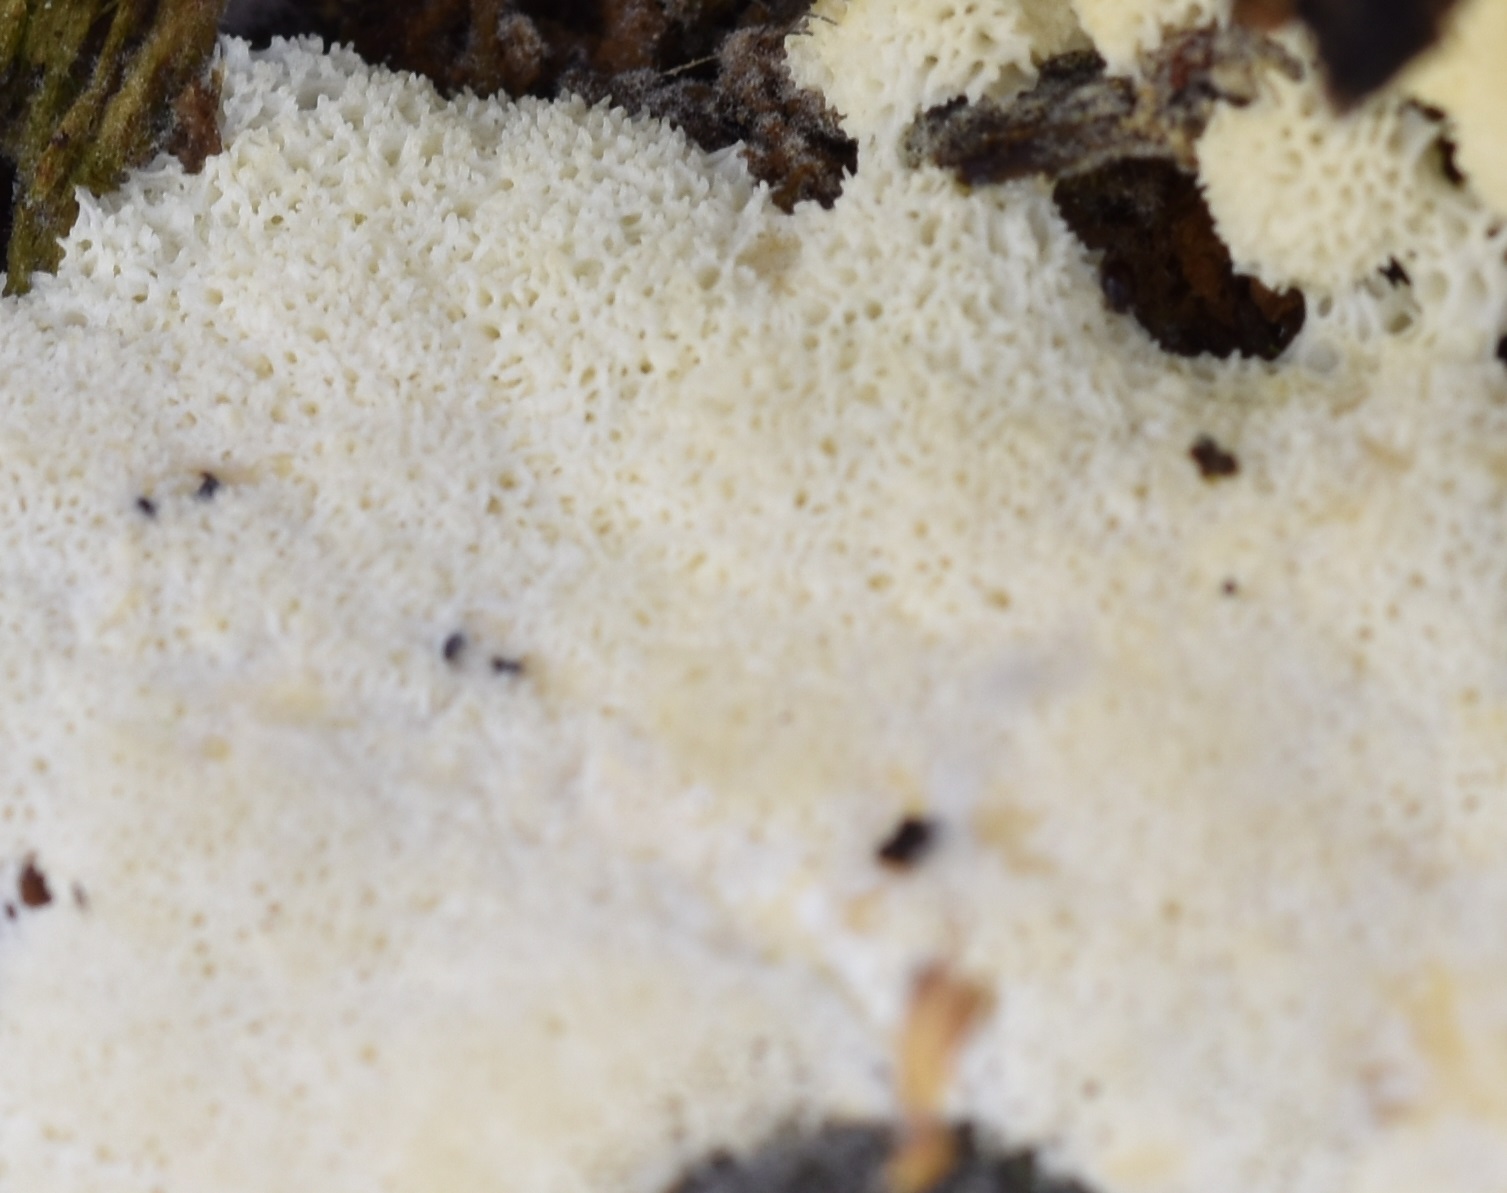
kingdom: Protozoa
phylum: Mycetozoa
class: Protosteliomycetes
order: Ceratiomyxales
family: Ceratiomyxaceae
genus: Ceratiomyxa
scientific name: Ceratiomyxa fruticulosa
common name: Honeycomb coral slime mold
